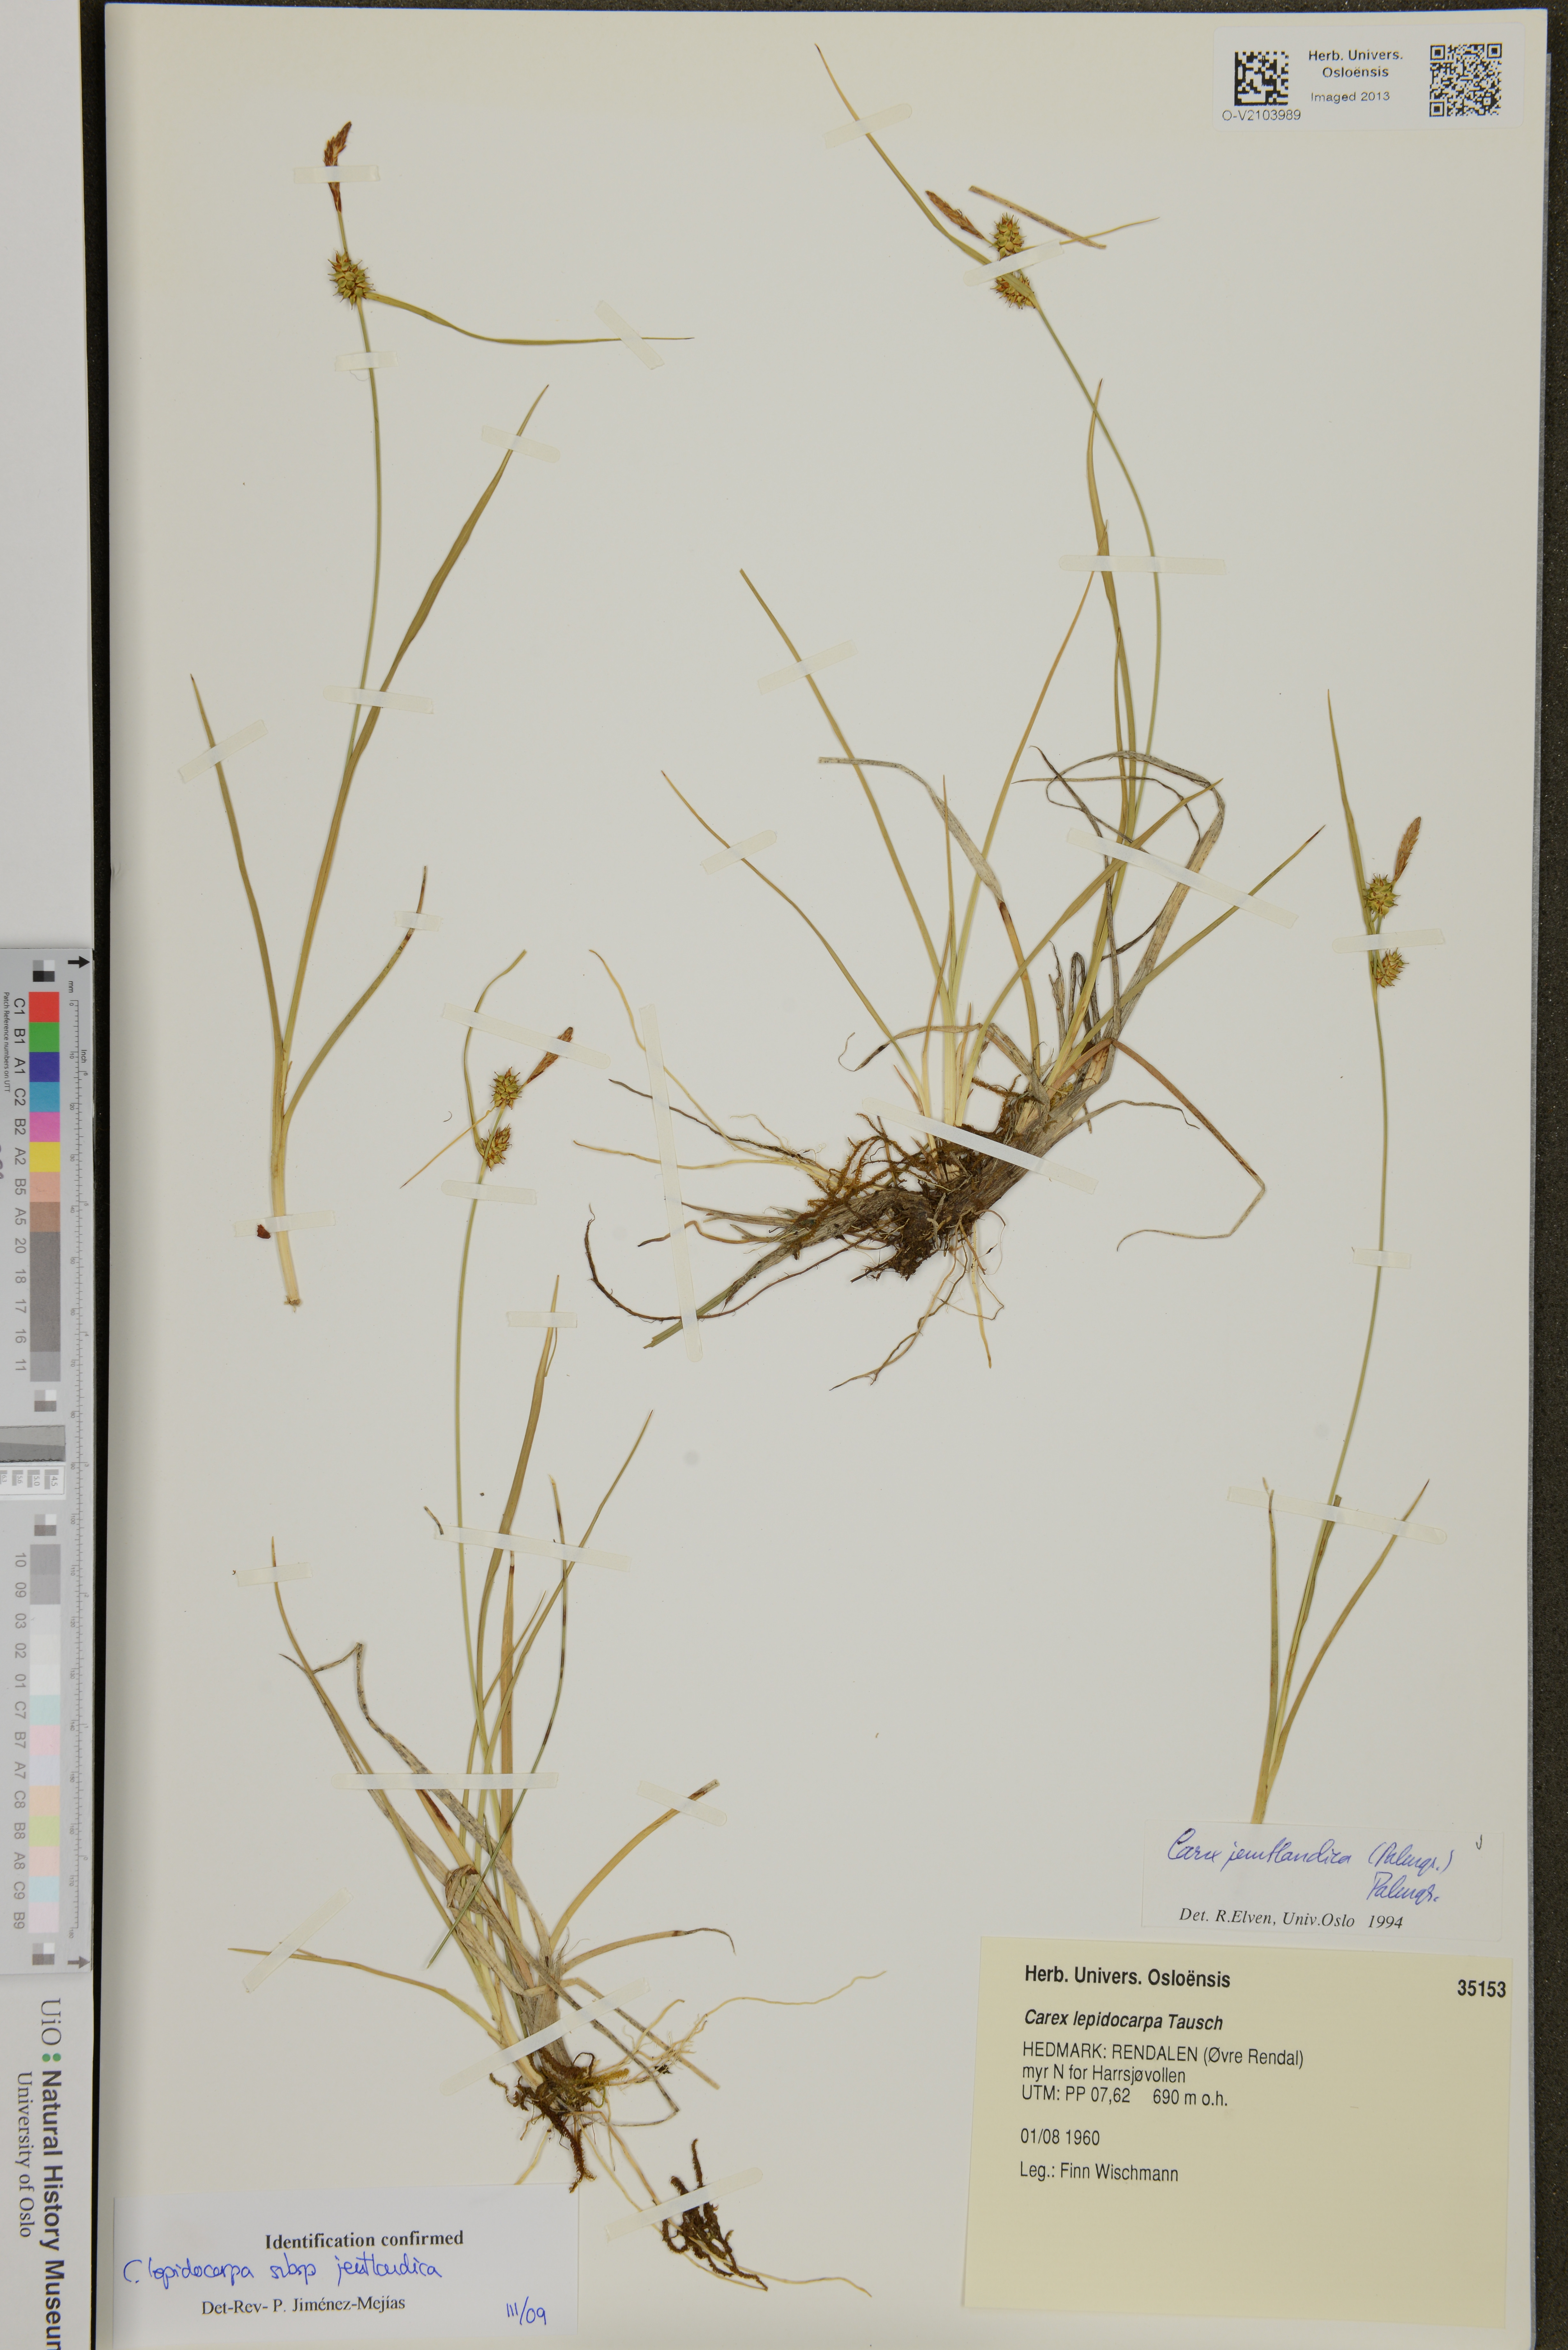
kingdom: Plantae
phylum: Tracheophyta
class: Liliopsida
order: Poales
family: Cyperaceae
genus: Carex
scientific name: Carex lepidocarpa
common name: Long-stalked yellow-sedge
